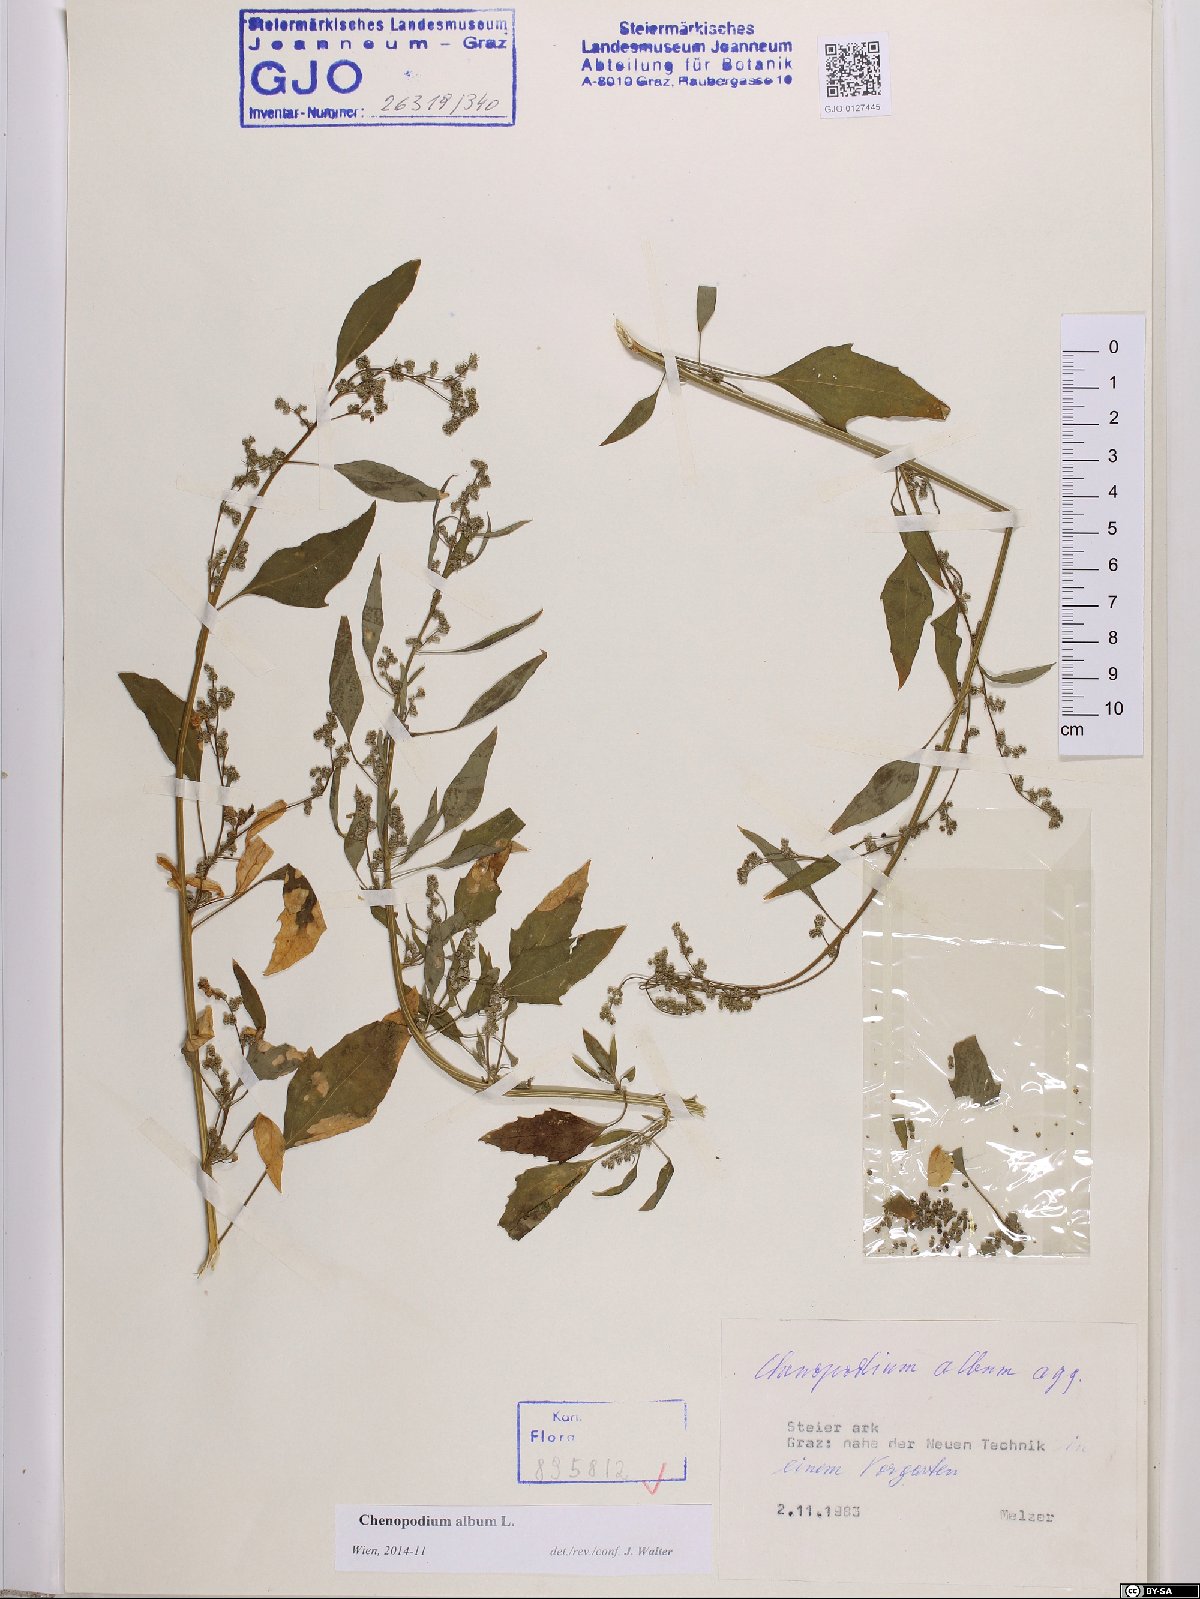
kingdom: Plantae
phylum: Tracheophyta
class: Magnoliopsida
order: Caryophyllales
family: Amaranthaceae
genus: Chenopodium
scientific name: Chenopodium album
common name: Fat-hen
